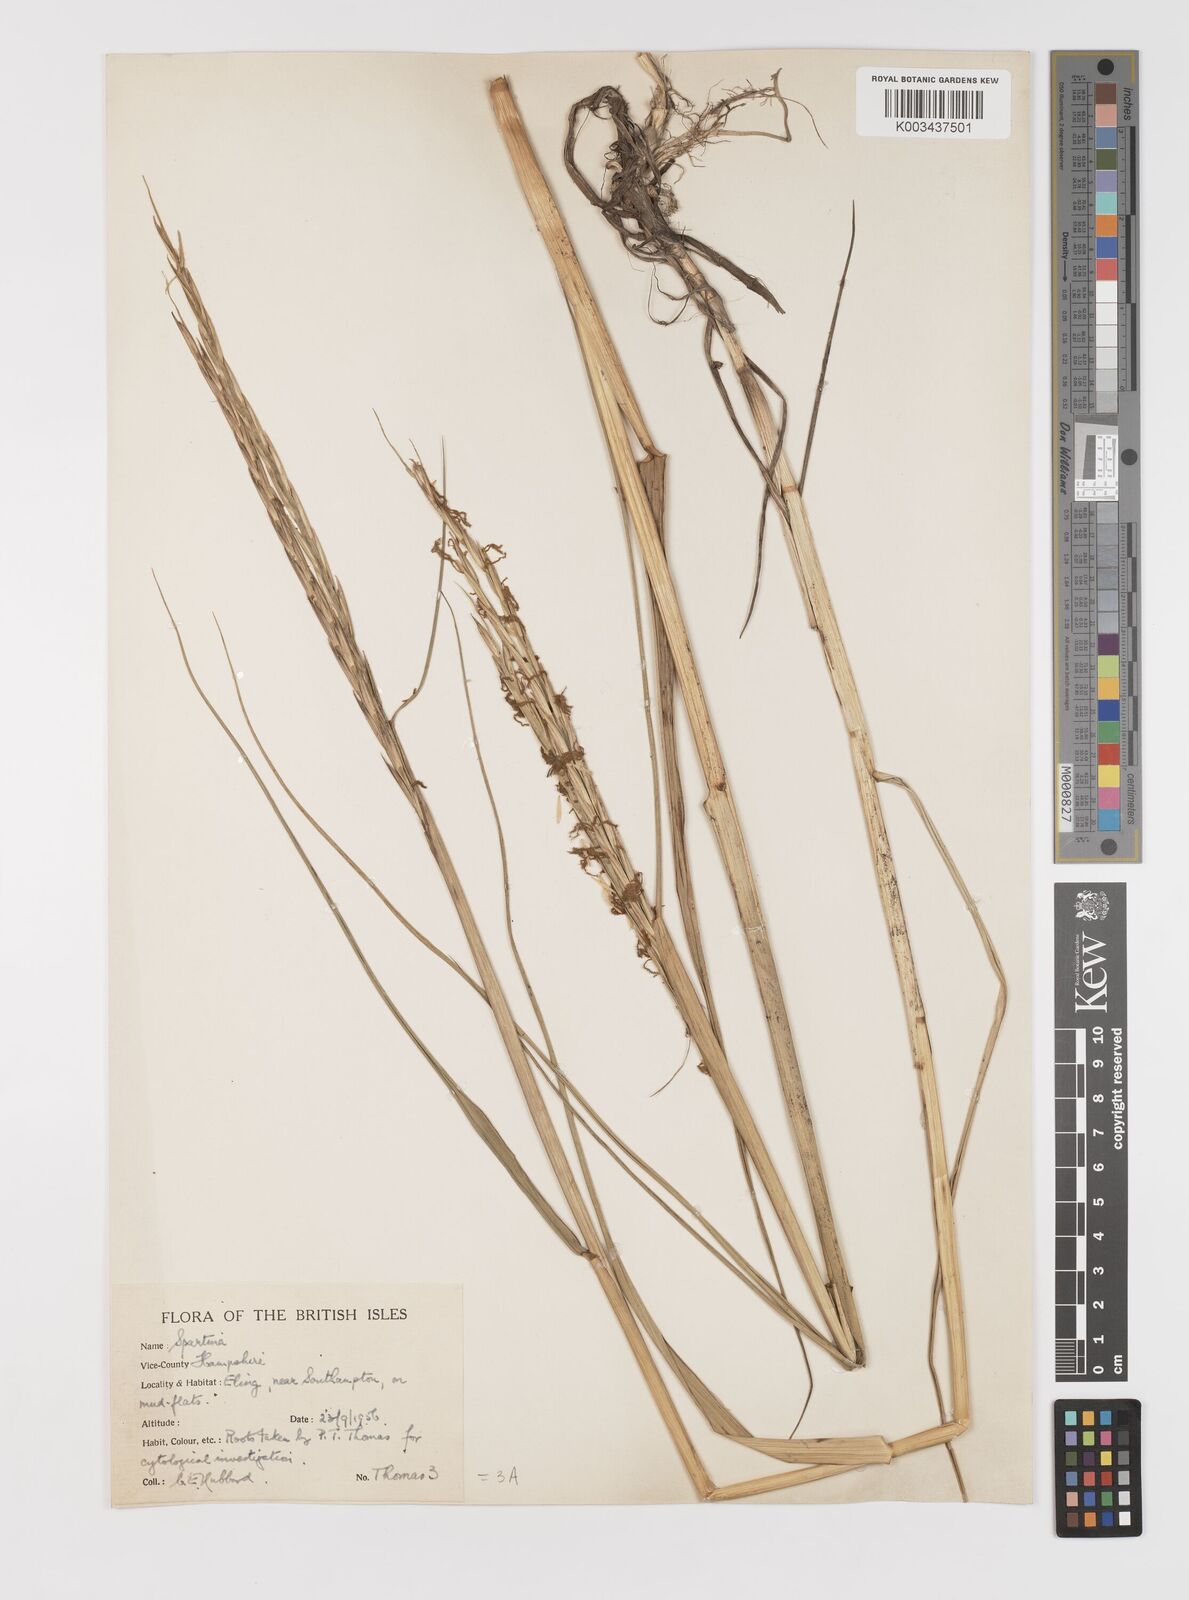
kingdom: Plantae
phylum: Tracheophyta
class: Liliopsida
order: Poales
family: Poaceae
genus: Sporobolus
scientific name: Sporobolus anglicus
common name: English cordgrass
